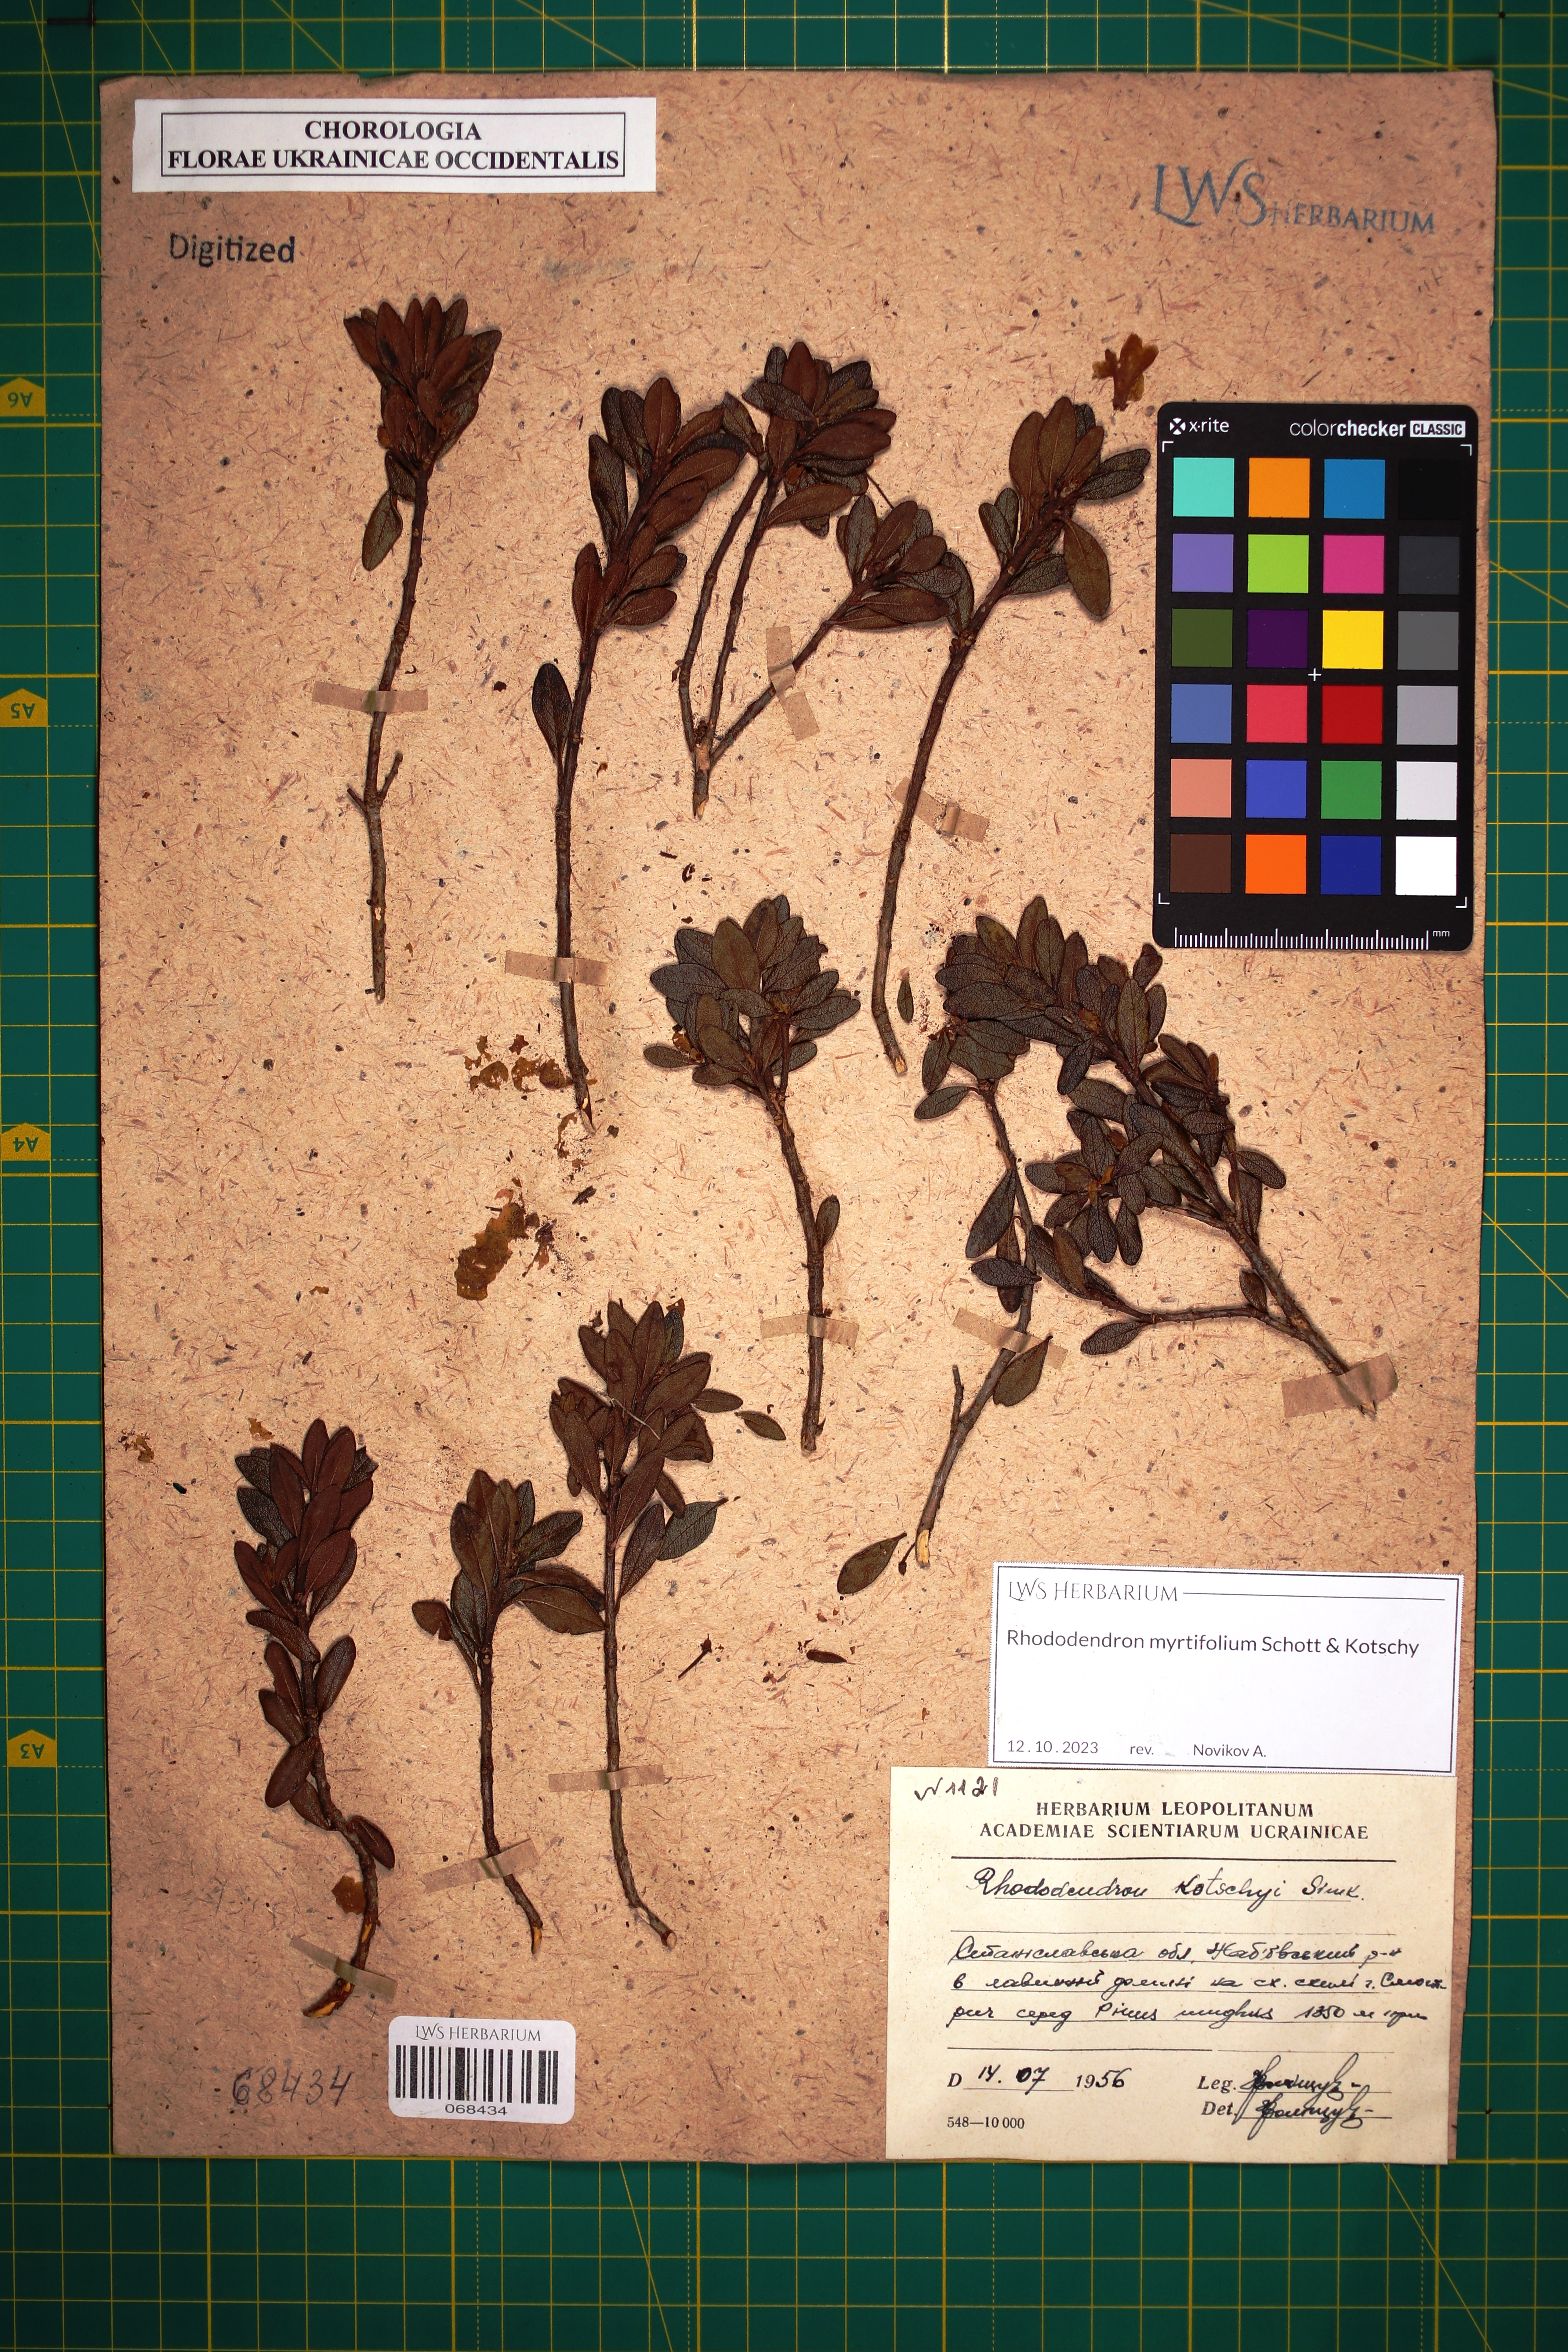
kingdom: Plantae
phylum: Tracheophyta
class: Magnoliopsida
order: Ericales
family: Ericaceae
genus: Rhododendron
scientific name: Rhododendron kotschyi
